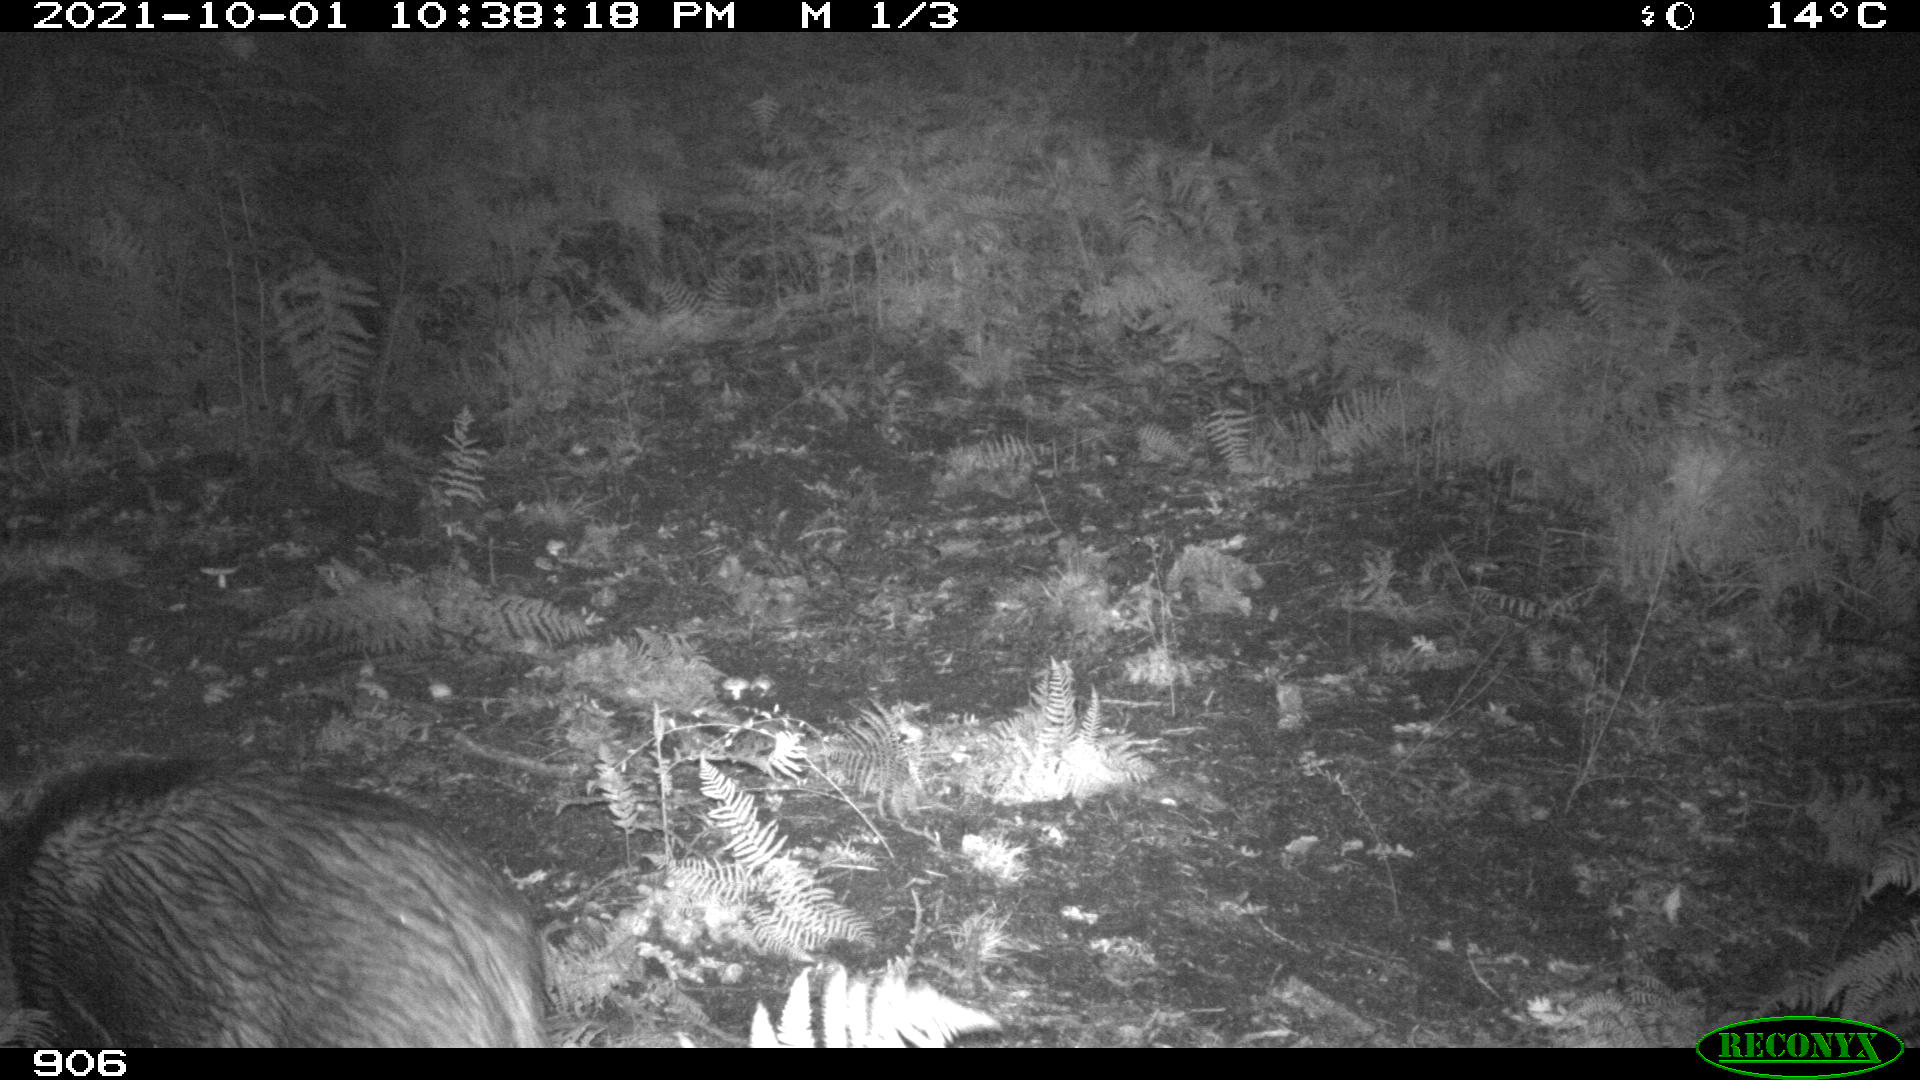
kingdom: Animalia
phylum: Chordata
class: Mammalia
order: Artiodactyla
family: Suidae
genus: Sus
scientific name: Sus scrofa
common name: Wild boar
